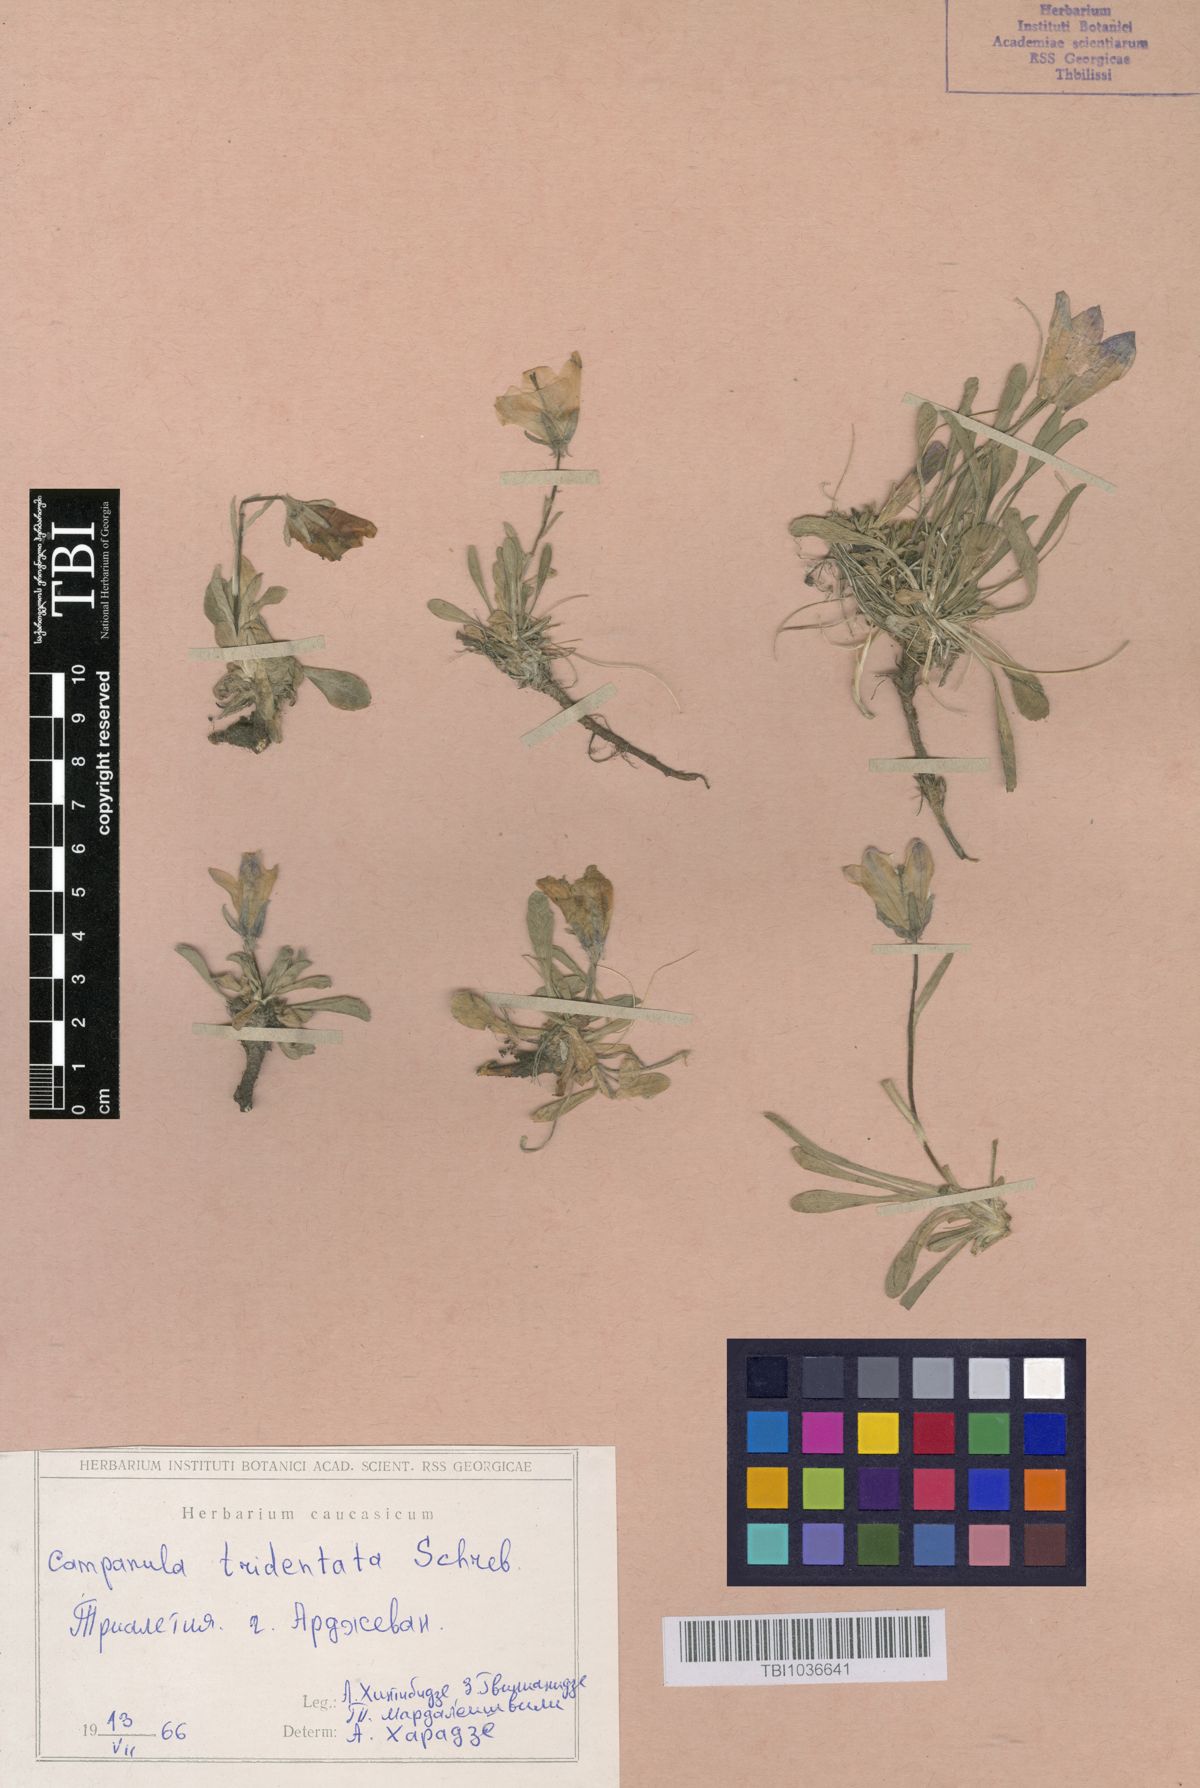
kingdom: Plantae
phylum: Tracheophyta
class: Magnoliopsida
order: Asterales
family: Campanulaceae
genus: Campanula
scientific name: Campanula tridentata
